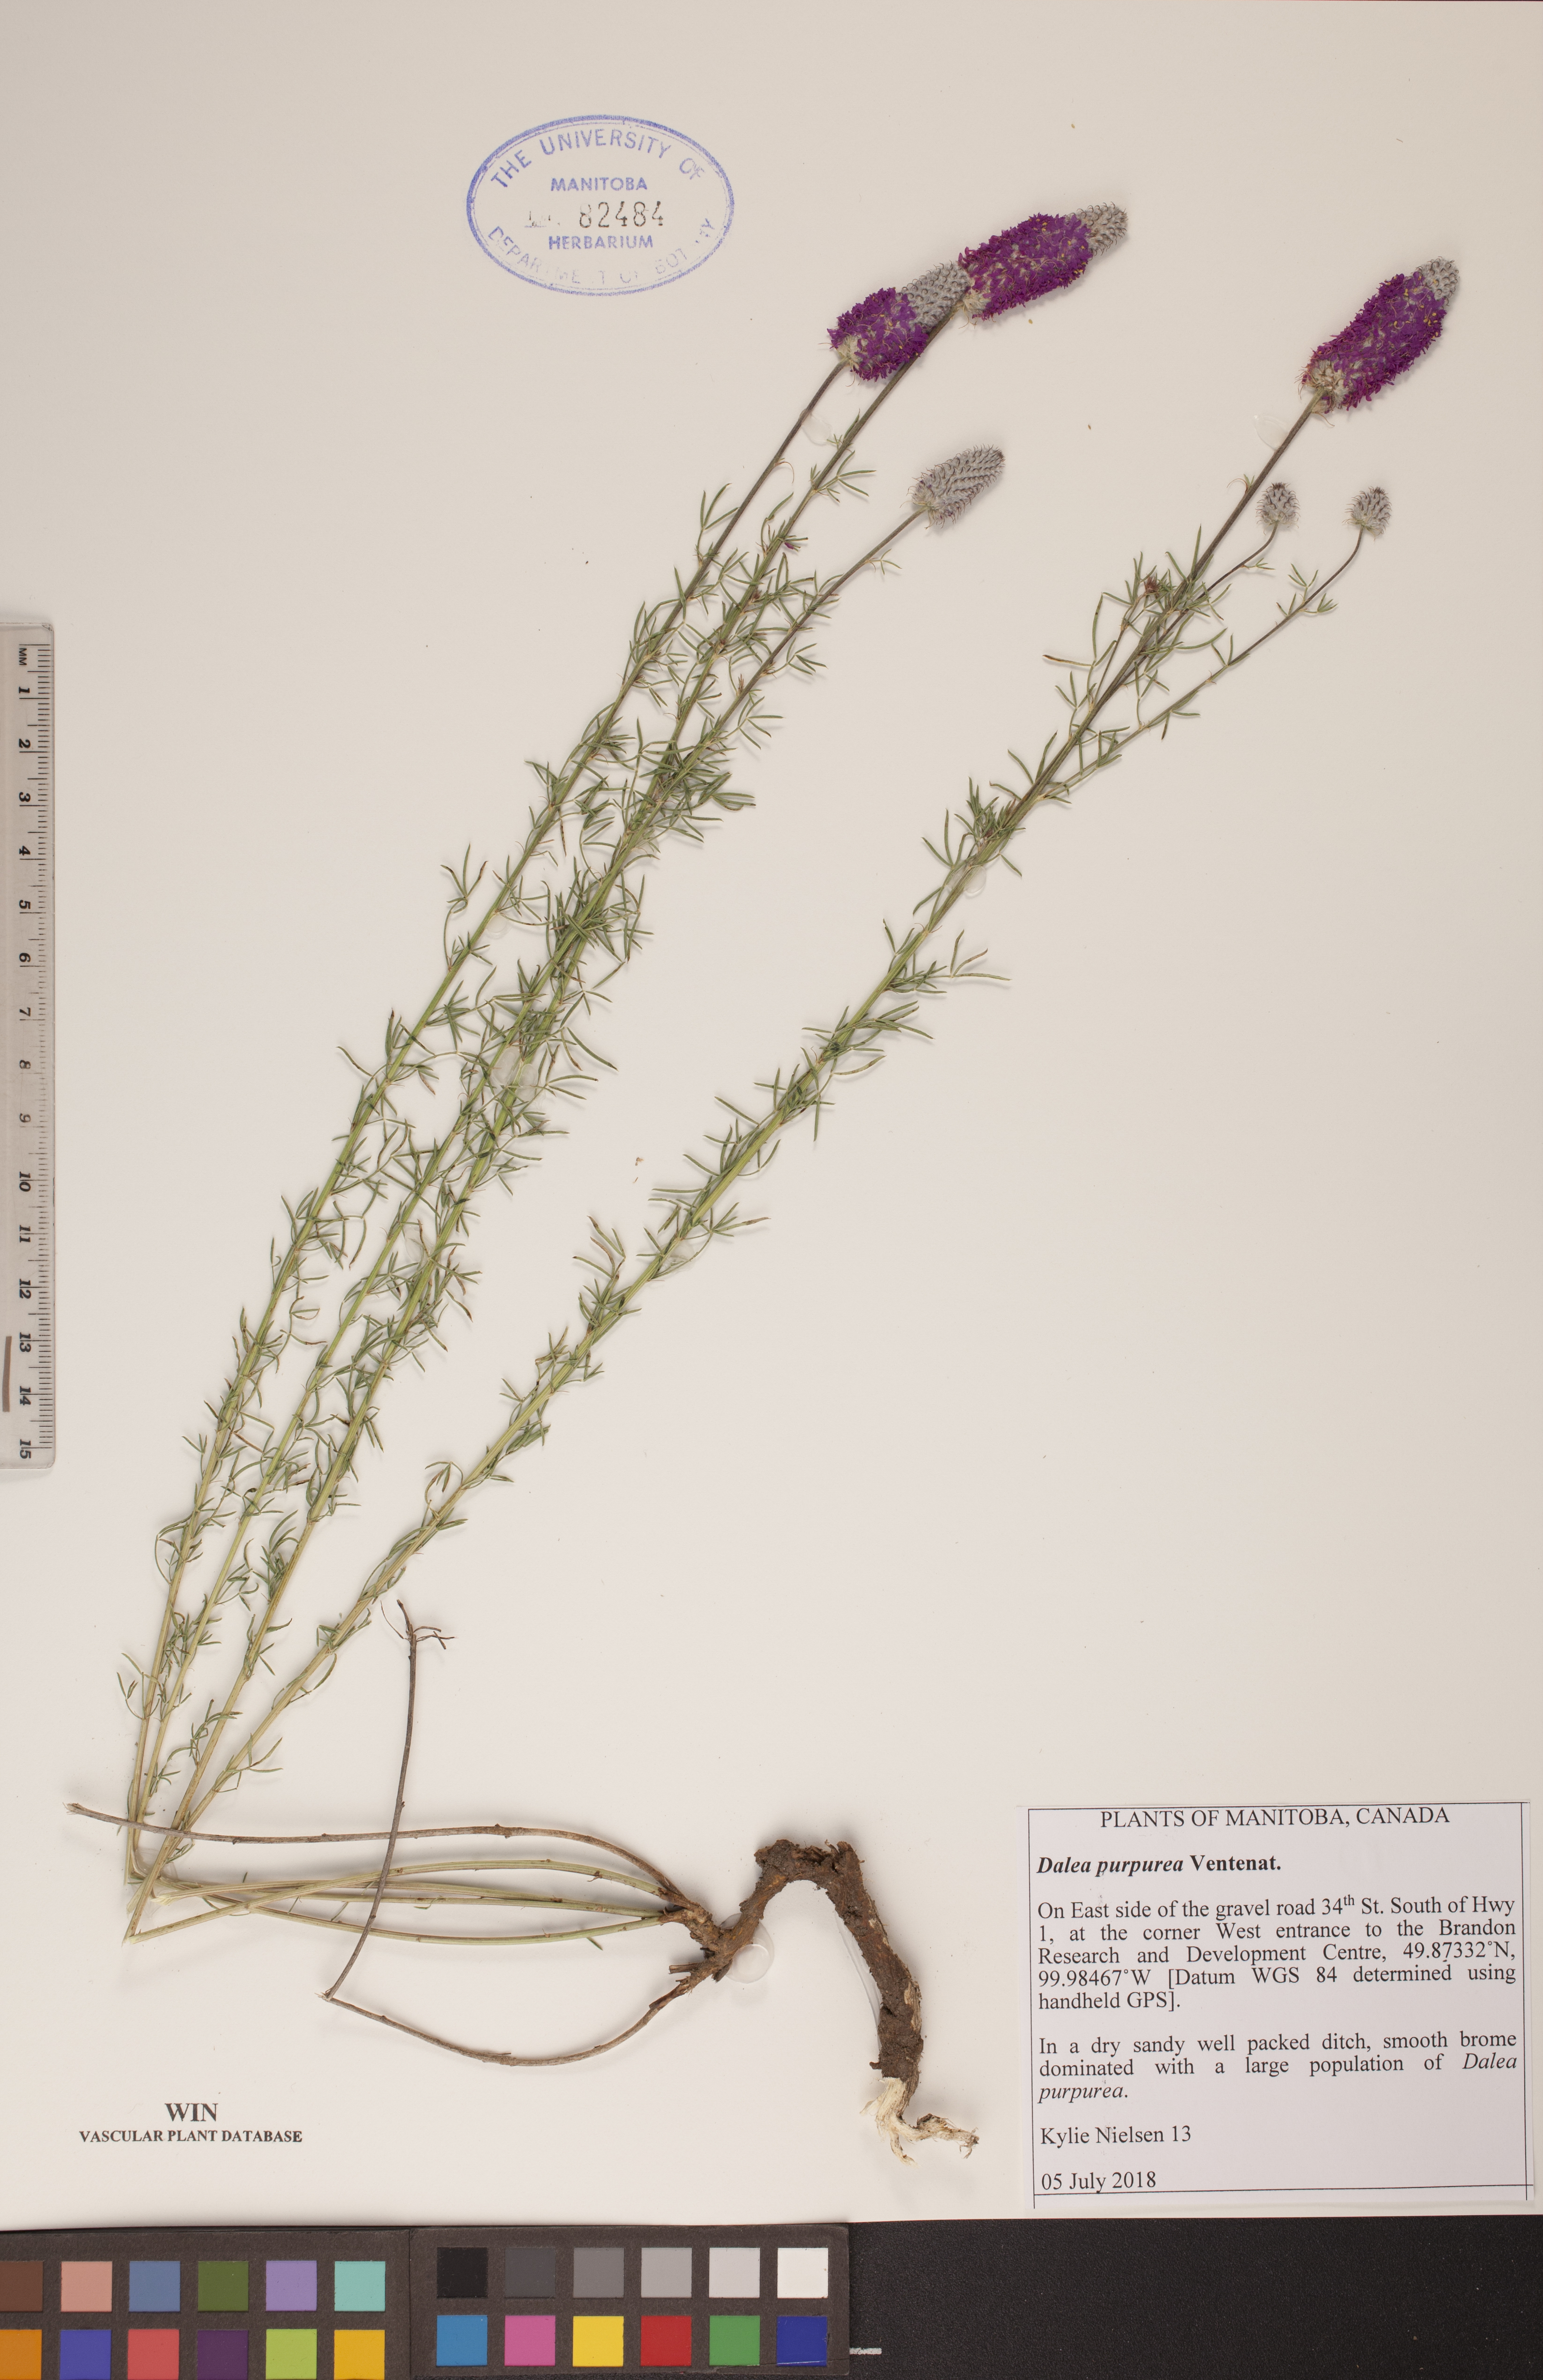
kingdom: Plantae
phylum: Tracheophyta
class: Magnoliopsida
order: Fabales
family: Fabaceae
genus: Dalea
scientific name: Dalea purpurea
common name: Purple prairie-clover
